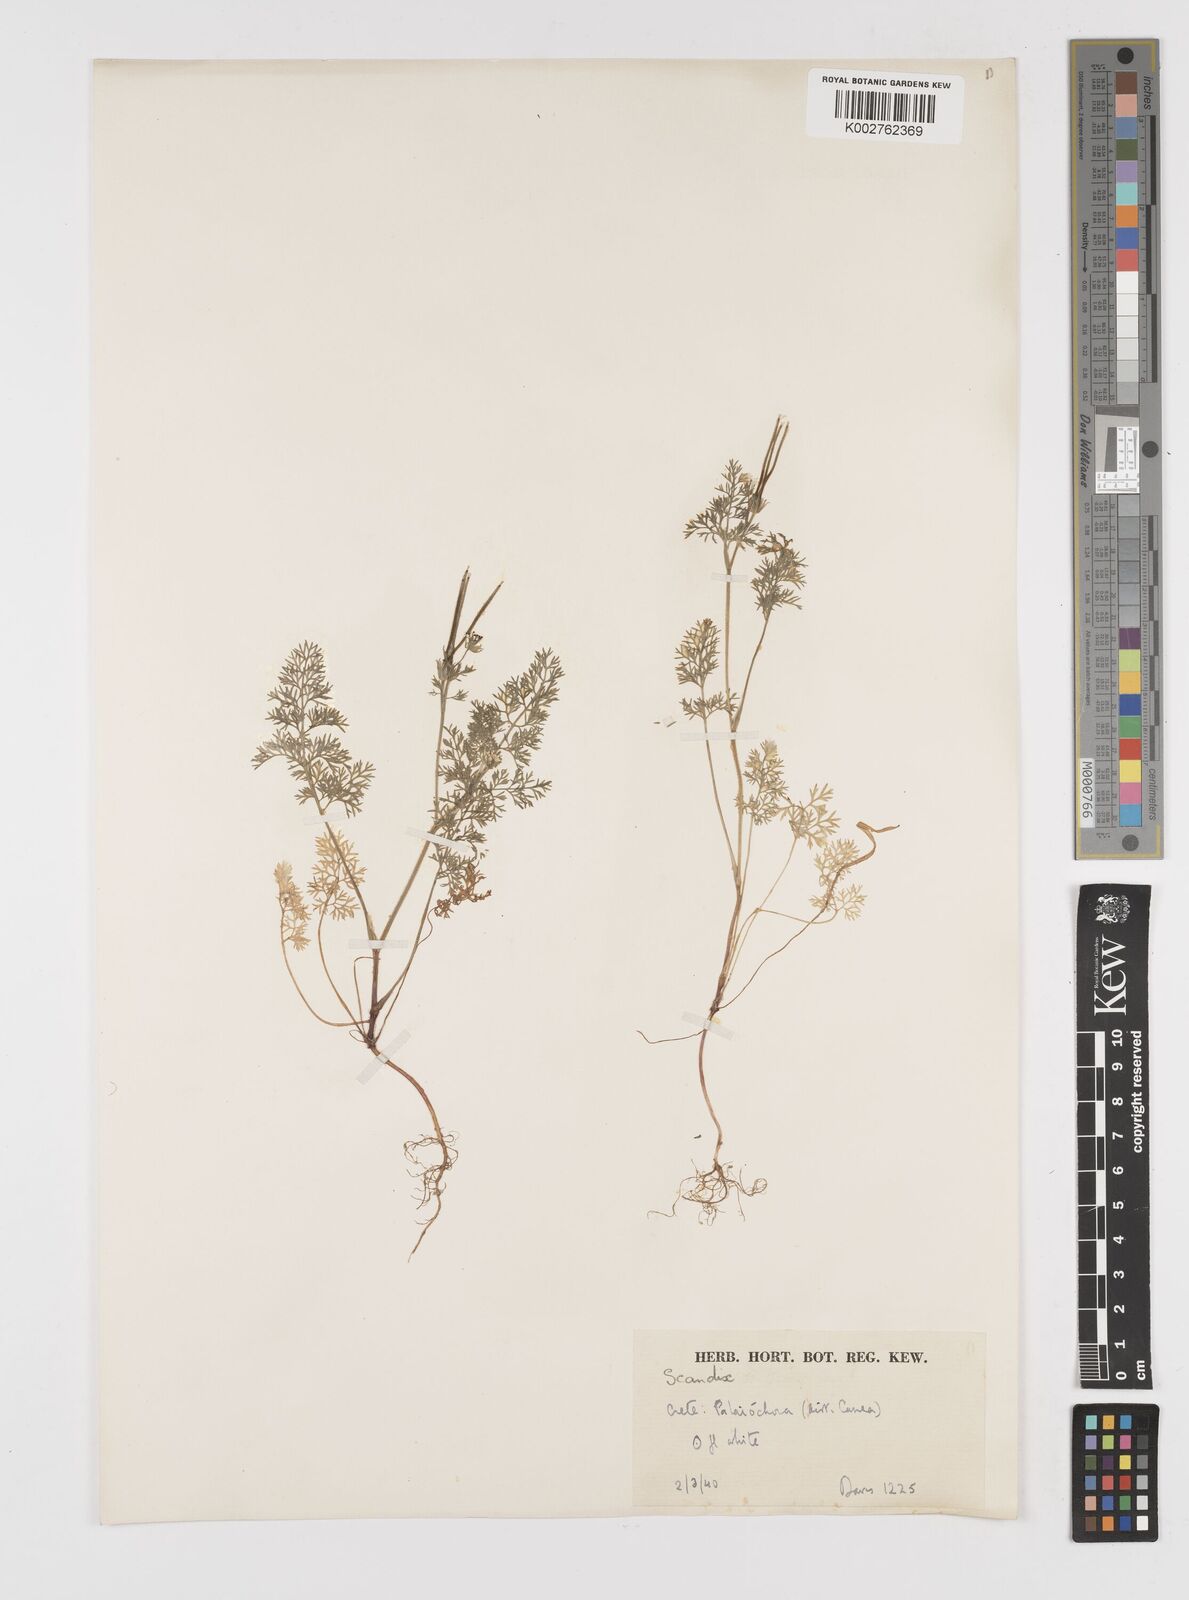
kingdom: Plantae
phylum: Tracheophyta
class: Magnoliopsida
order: Apiales
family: Apiaceae
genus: Scandix
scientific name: Scandix pecten-veneris
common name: Shepherd's-needle
